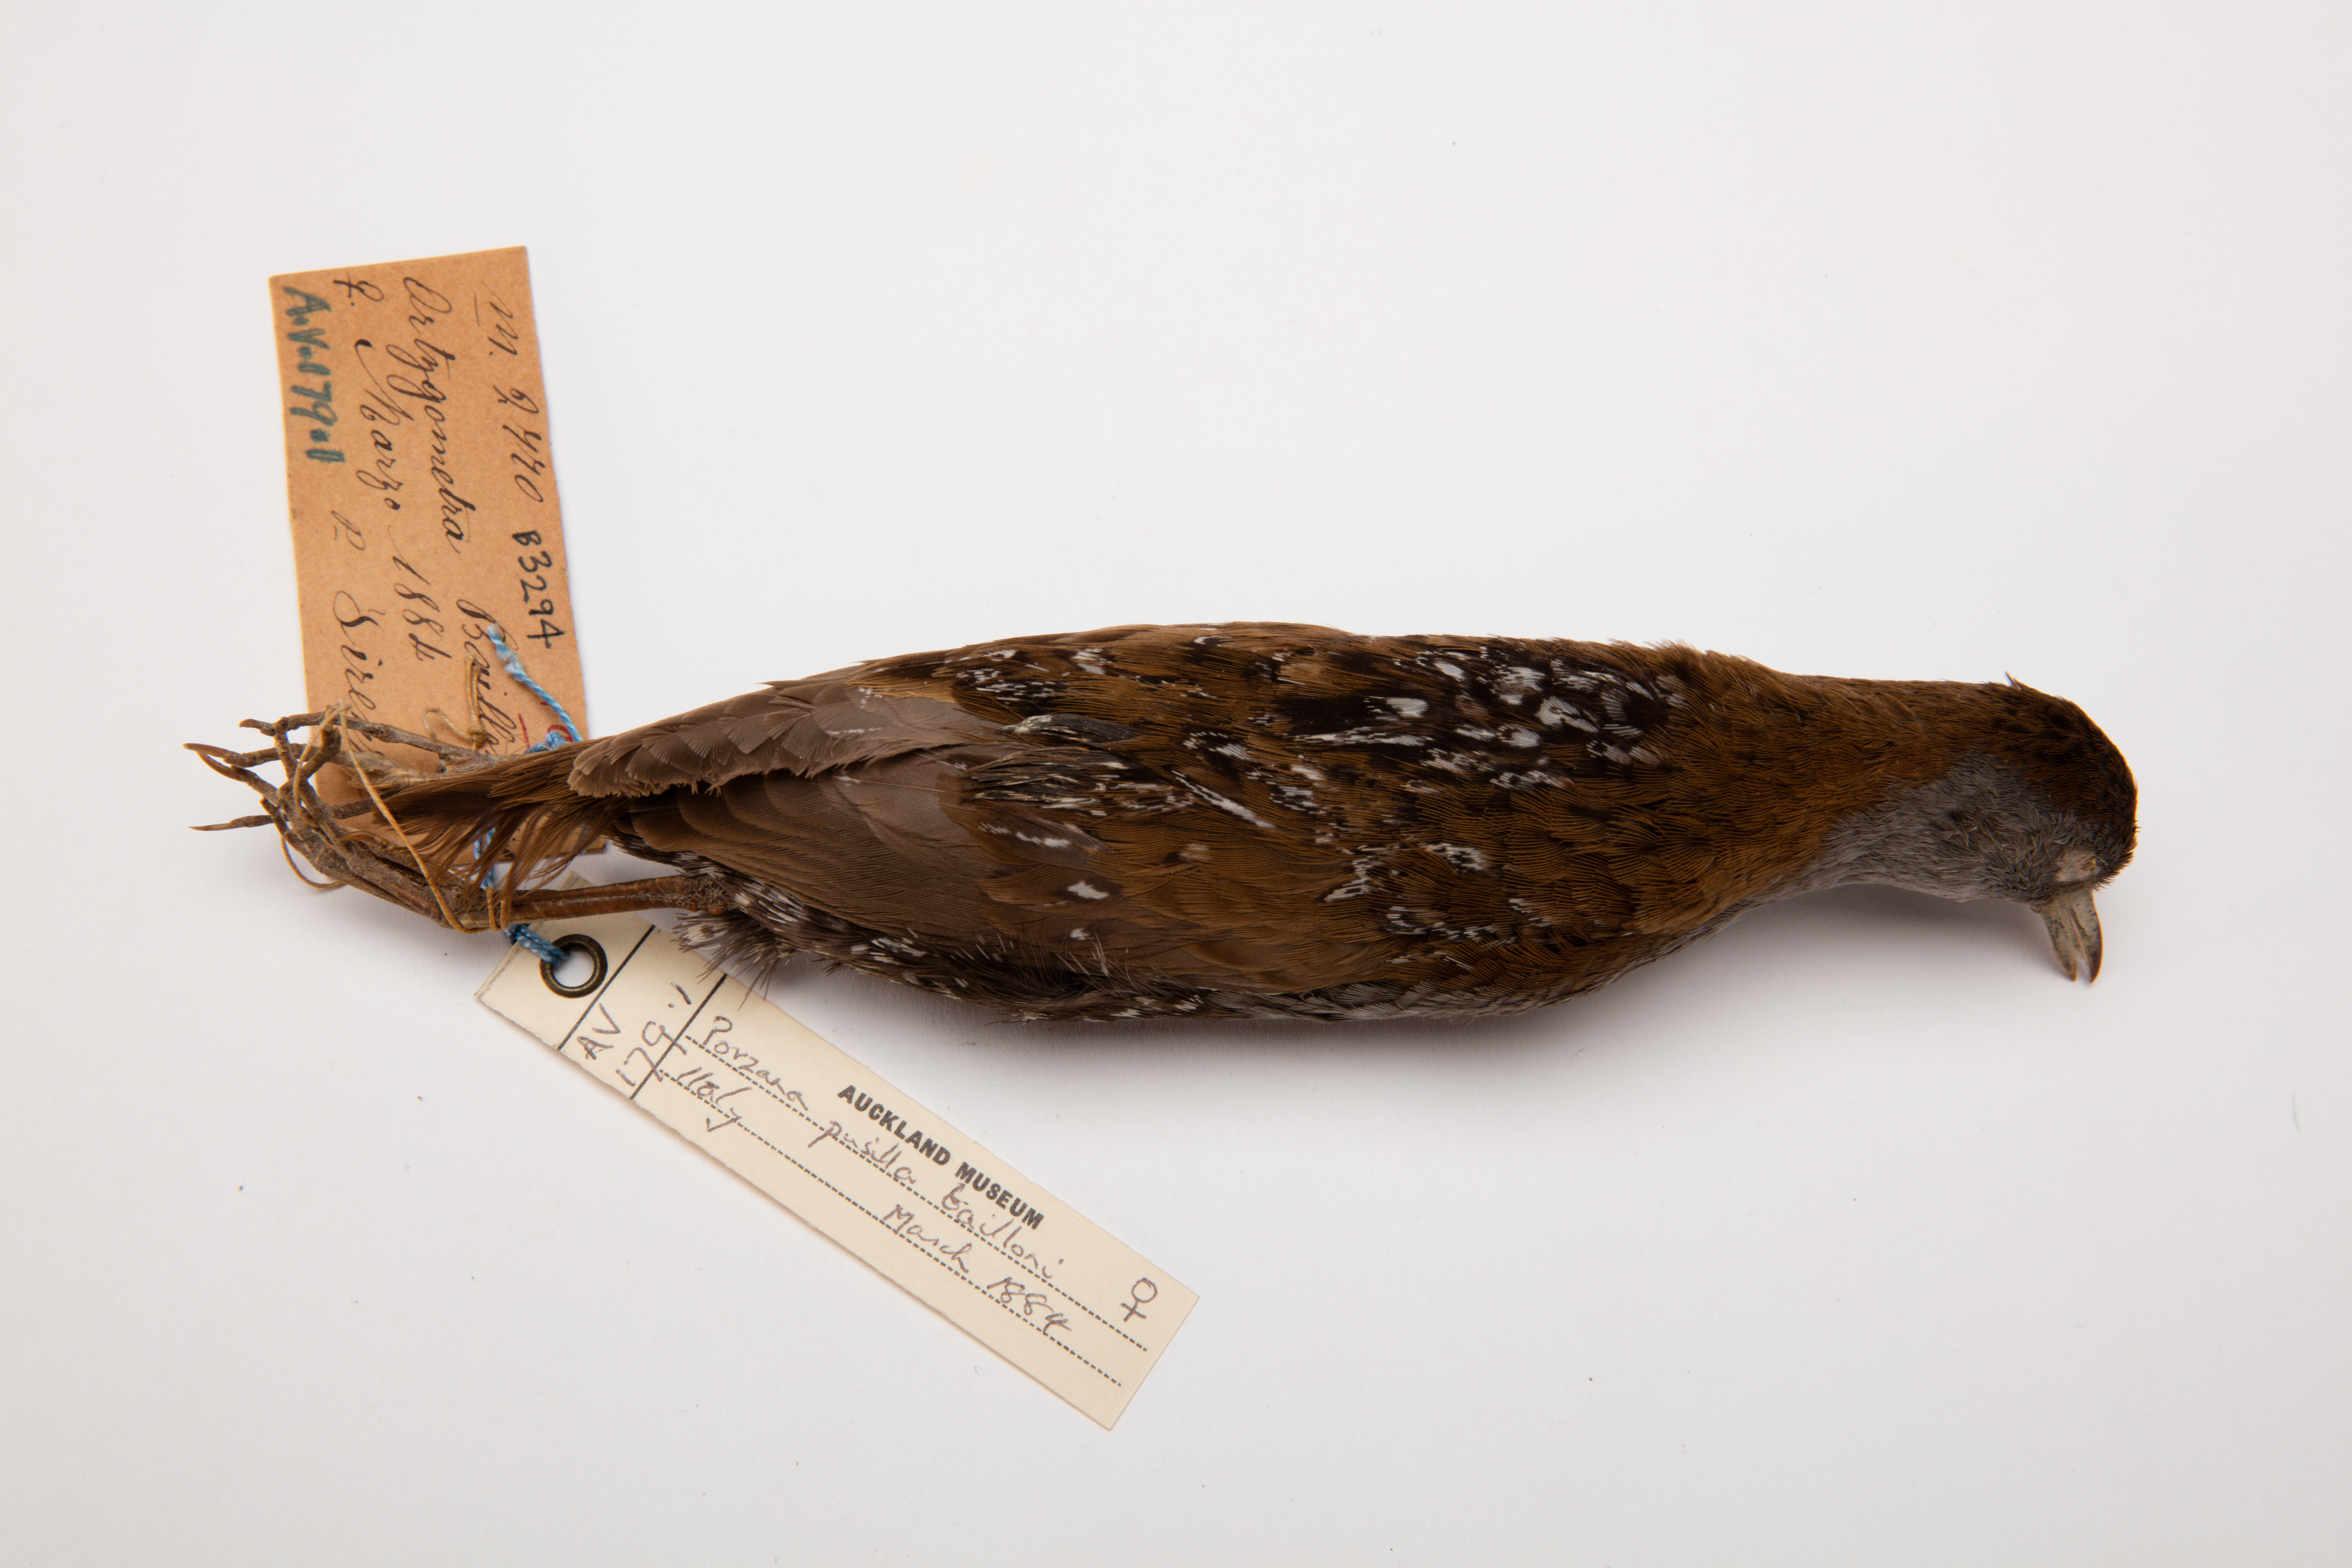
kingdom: Animalia
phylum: Chordata
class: Aves
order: Gruiformes
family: Rallidae
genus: Porzana
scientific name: Porzana pusilla
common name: Baillon's crake
